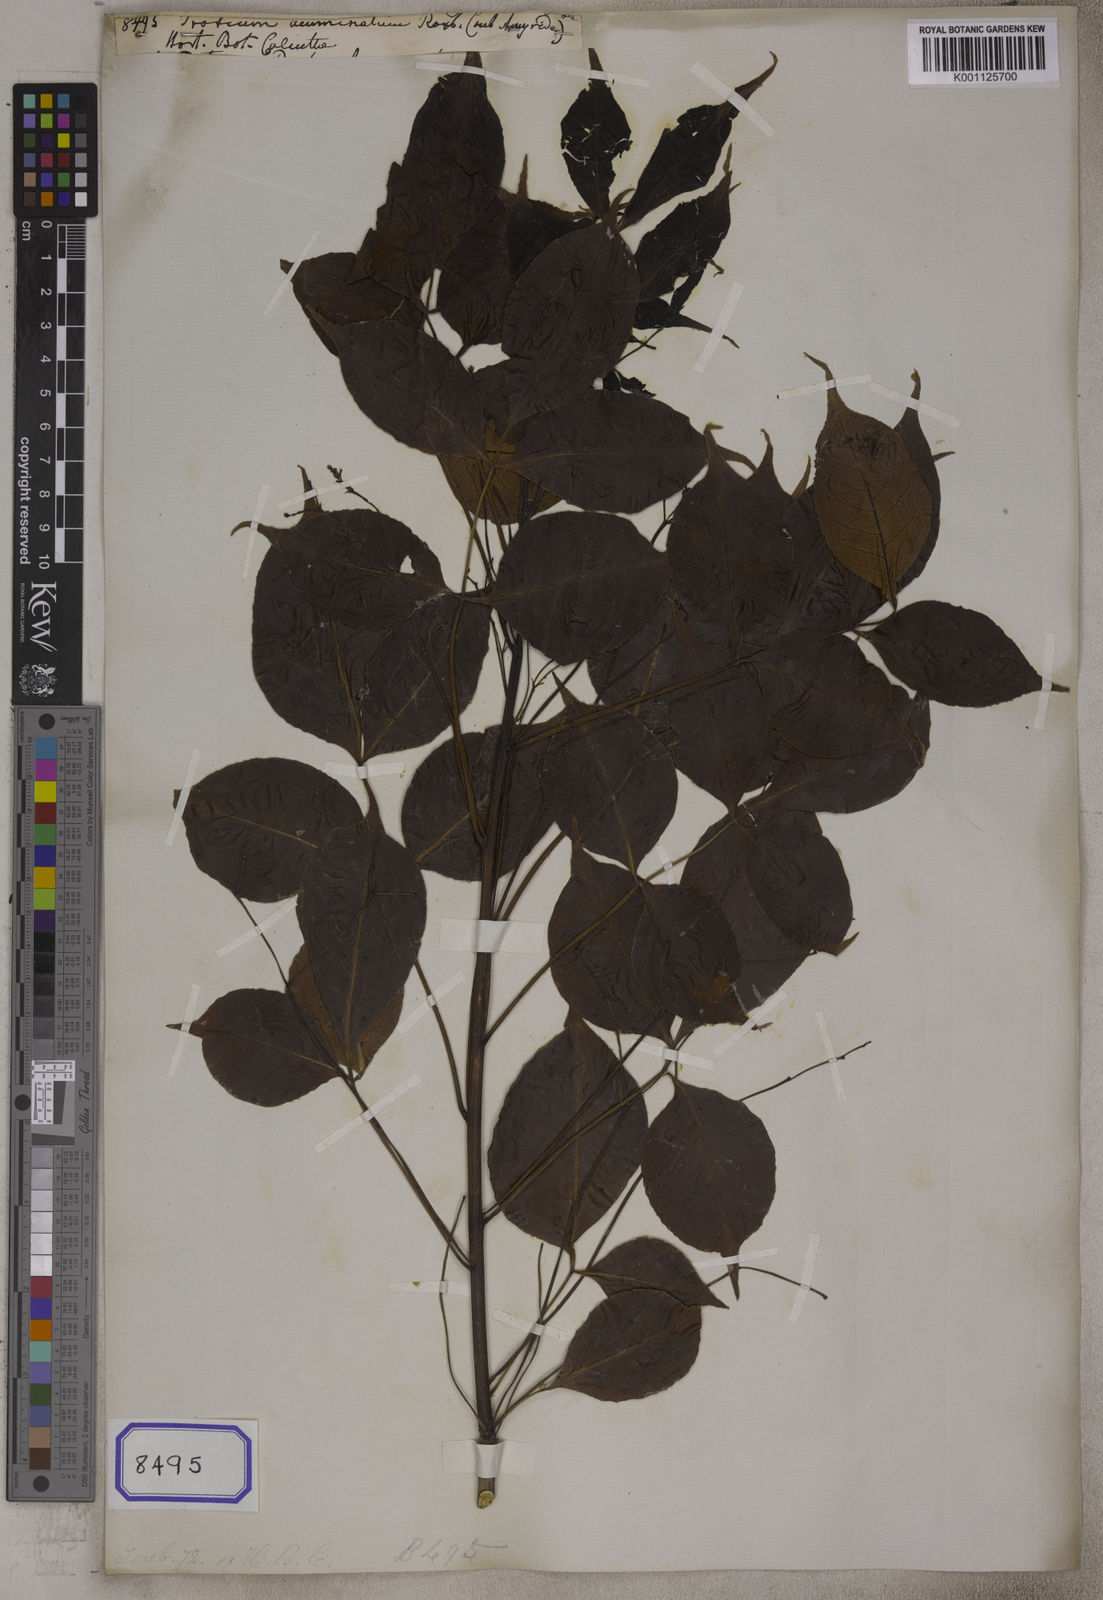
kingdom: Plantae
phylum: Tracheophyta
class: Magnoliopsida
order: Sapindales
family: Burseraceae
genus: Protium
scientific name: Protium
